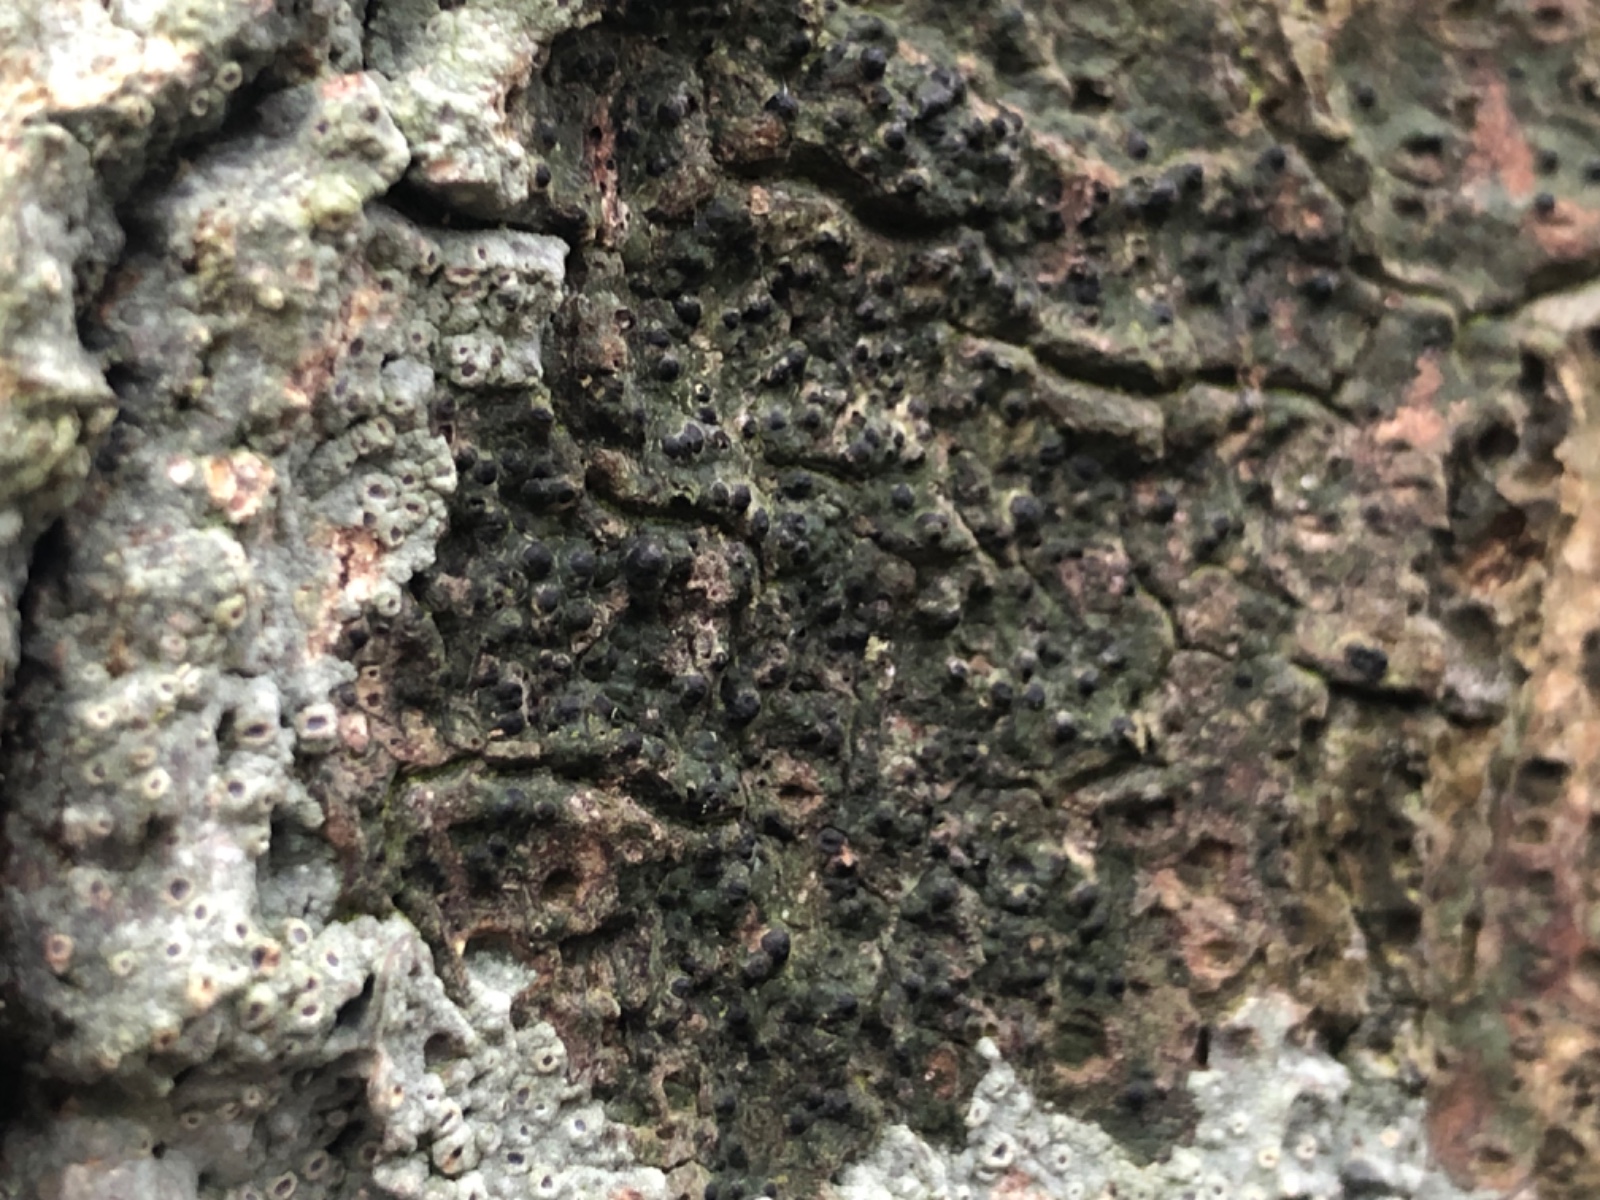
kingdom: Fungi
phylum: Ascomycota
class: Eurotiomycetes
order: Pyrenulales
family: Pyrenulaceae
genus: Pyrenula
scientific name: Pyrenula nitida
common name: glinsende kernelav
